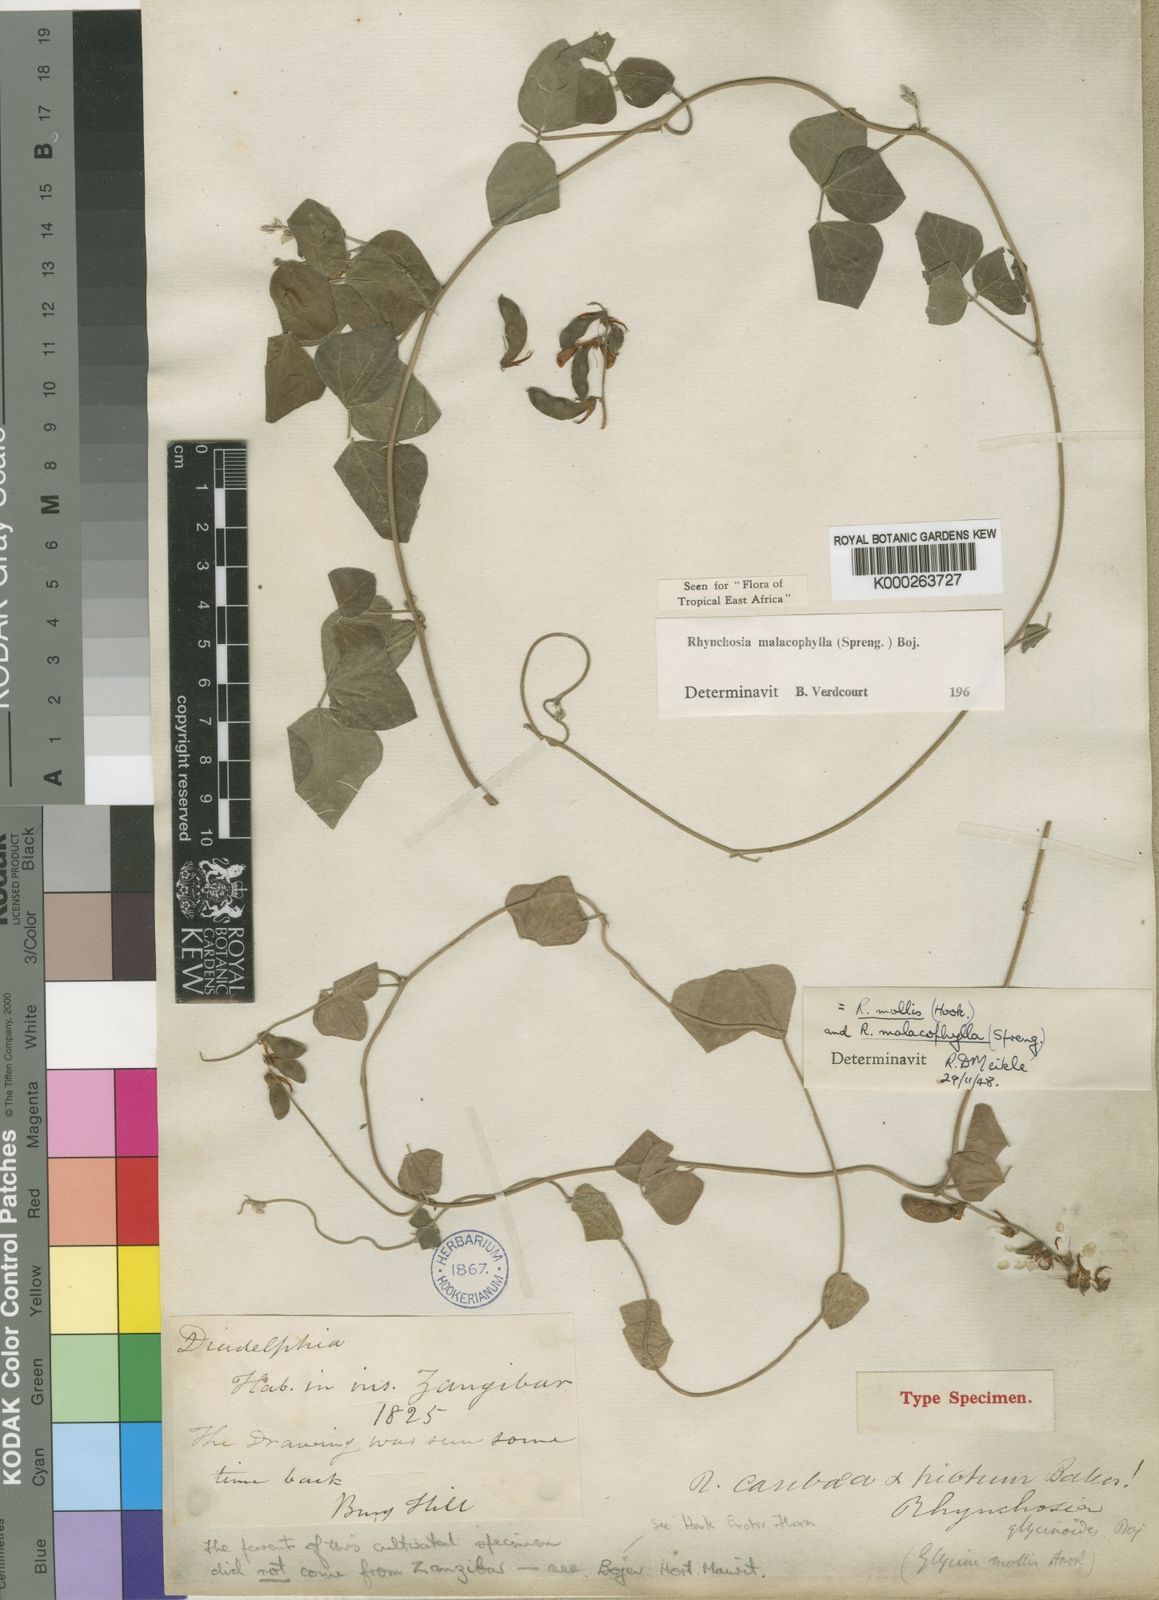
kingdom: Plantae
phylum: Tracheophyta
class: Magnoliopsida
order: Fabales
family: Fabaceae
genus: Rhynchosia
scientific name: Rhynchosia malacophylla
